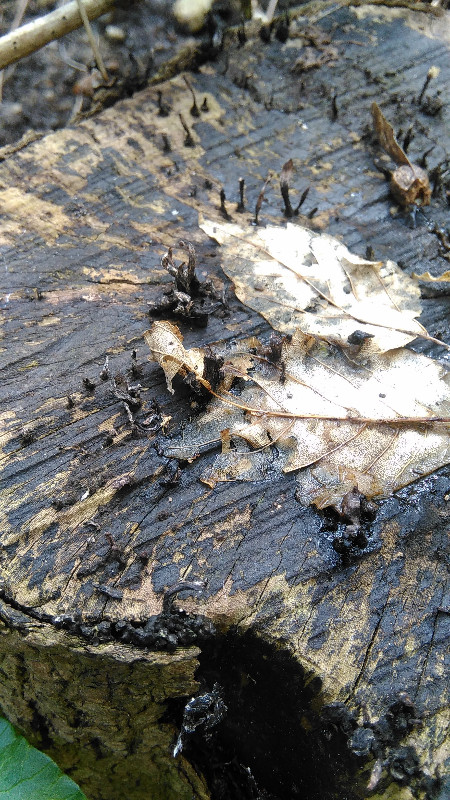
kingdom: Fungi
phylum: Ascomycota
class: Sordariomycetes
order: Xylariales
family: Xylariaceae
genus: Xylaria
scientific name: Xylaria hypoxylon
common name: grenet stødsvamp
